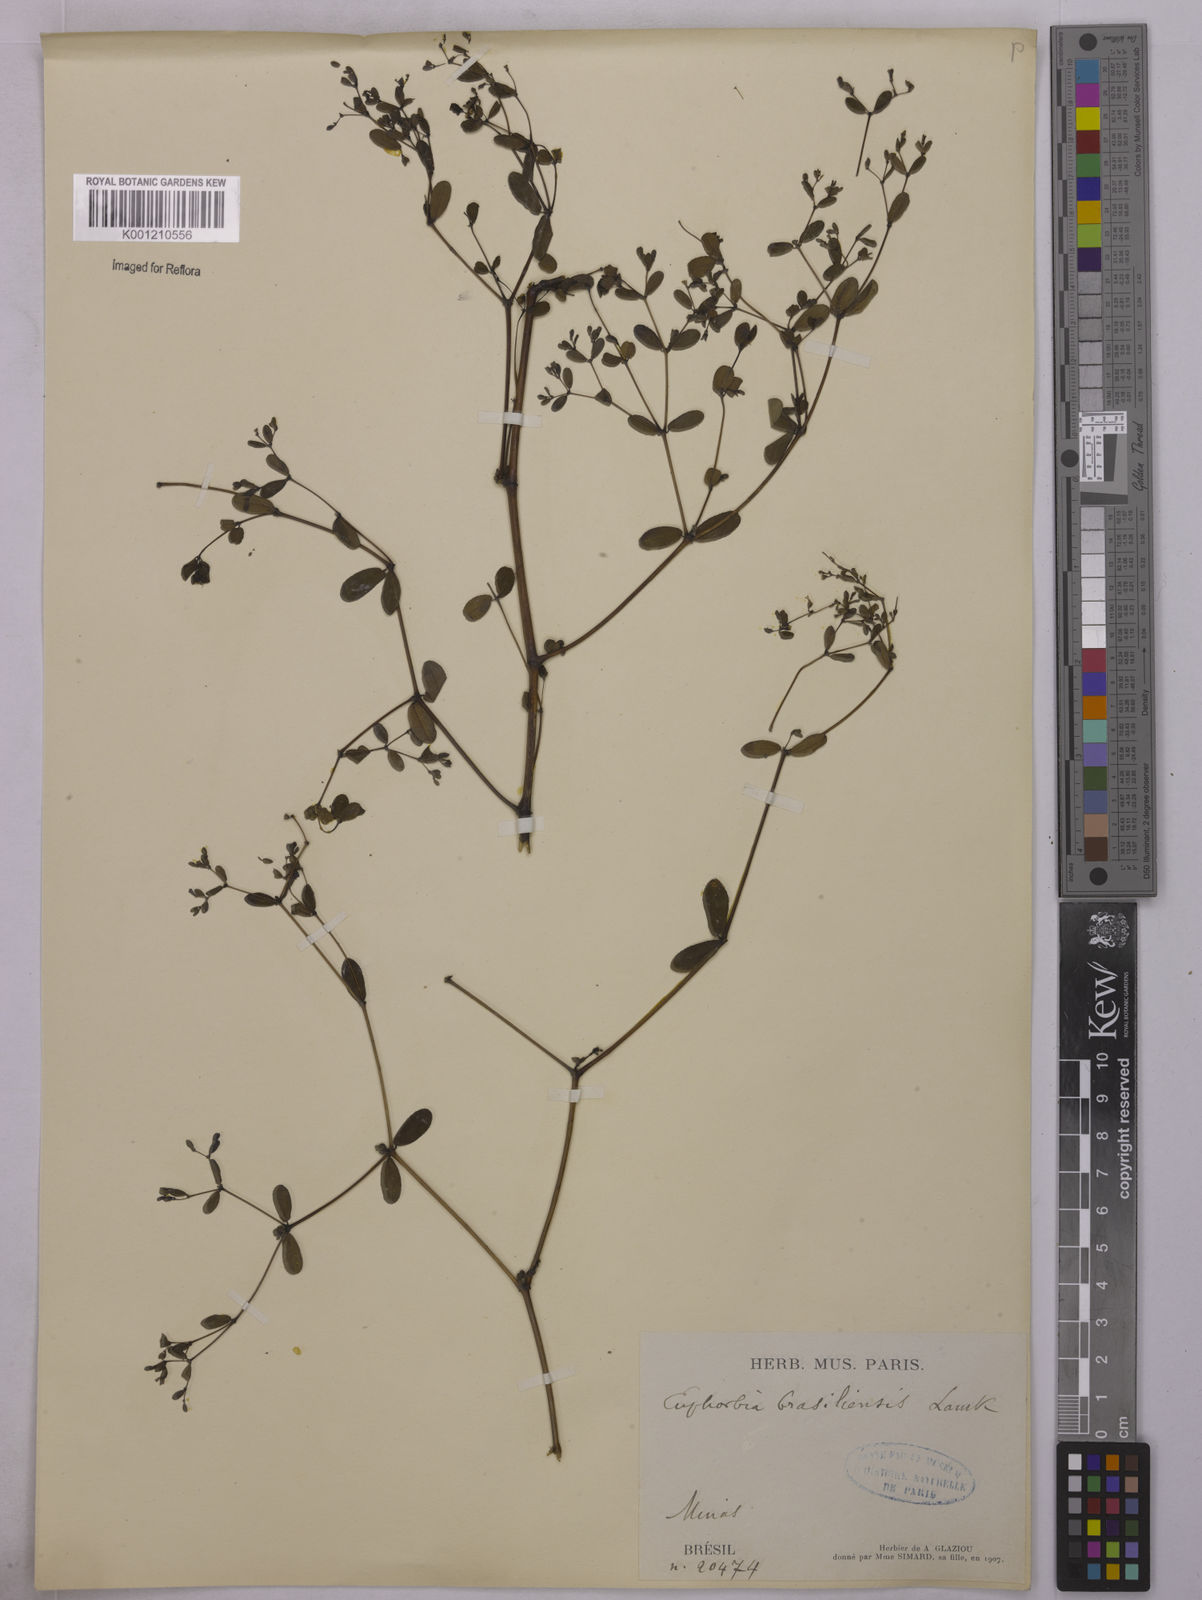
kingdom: Plantae
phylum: Tracheophyta
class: Magnoliopsida
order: Malpighiales
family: Euphorbiaceae
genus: Euphorbia
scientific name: Euphorbia hyssopifolia
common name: Hyssopleaf sandmat
